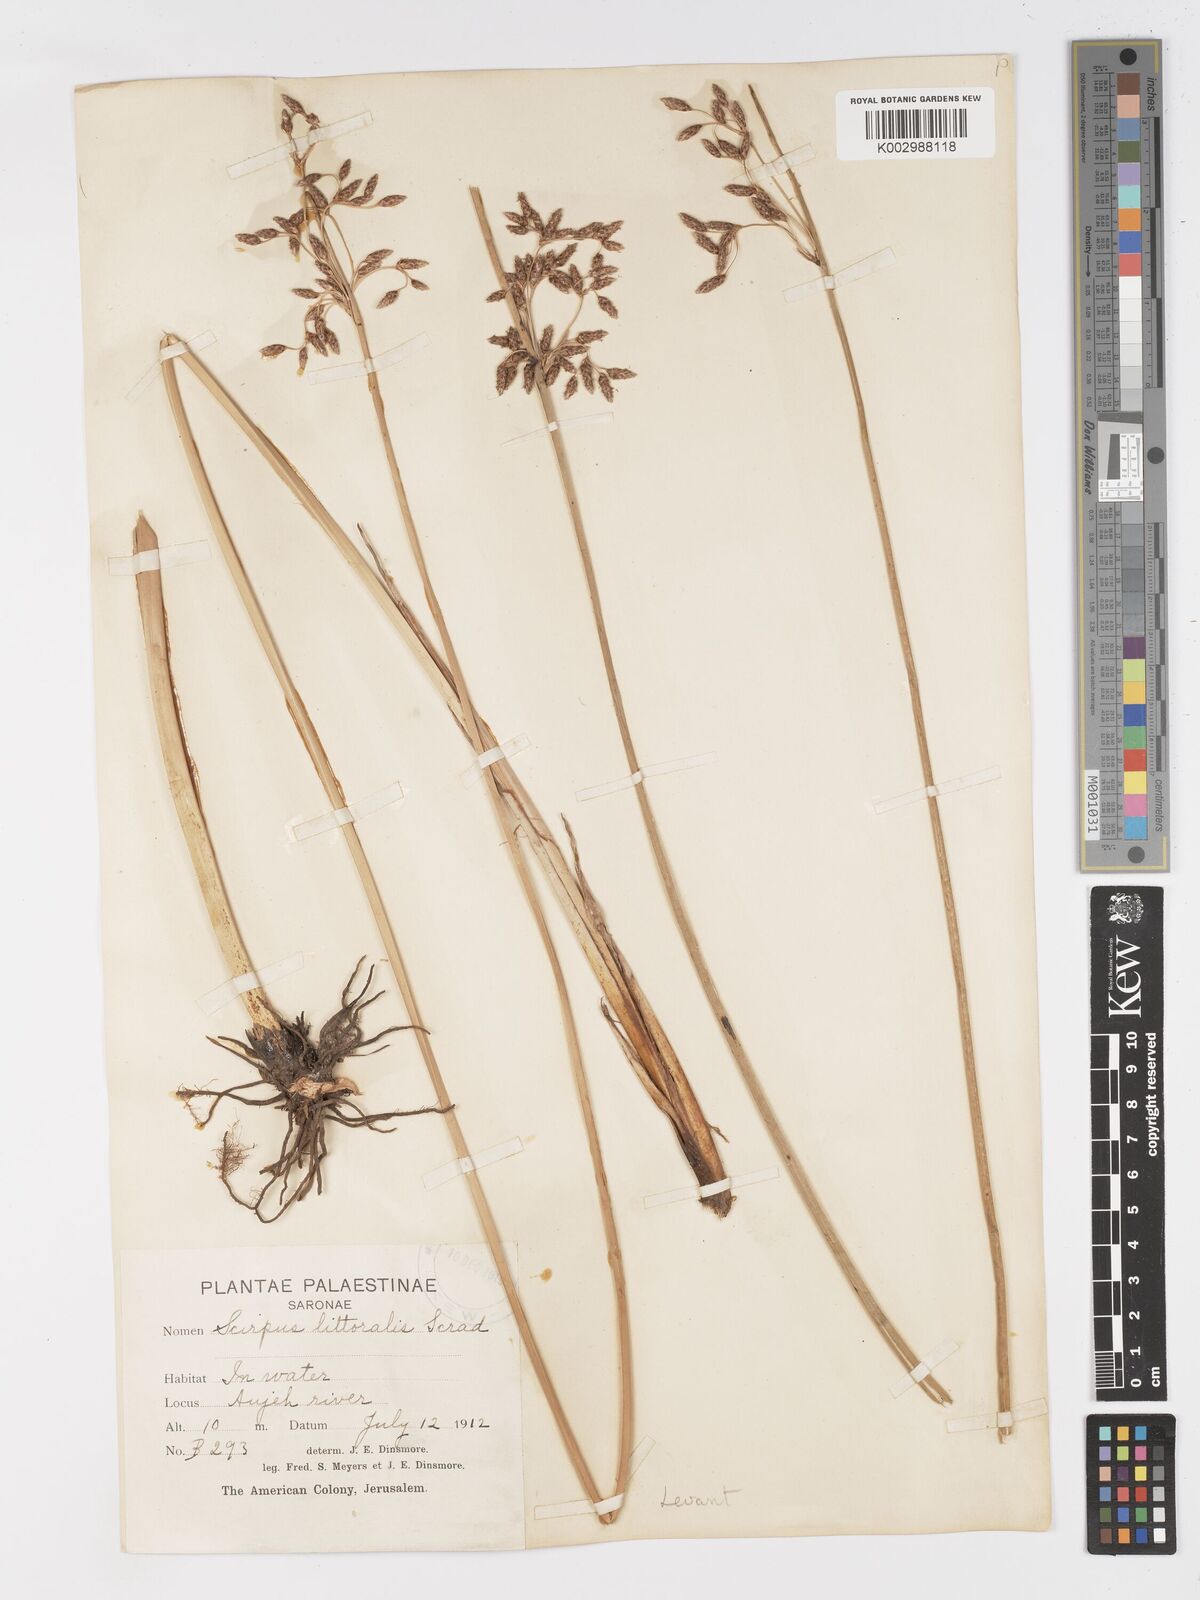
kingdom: Plantae
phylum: Tracheophyta
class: Liliopsida
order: Poales
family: Cyperaceae
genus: Schoenoplectus
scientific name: Schoenoplectus litoralis
